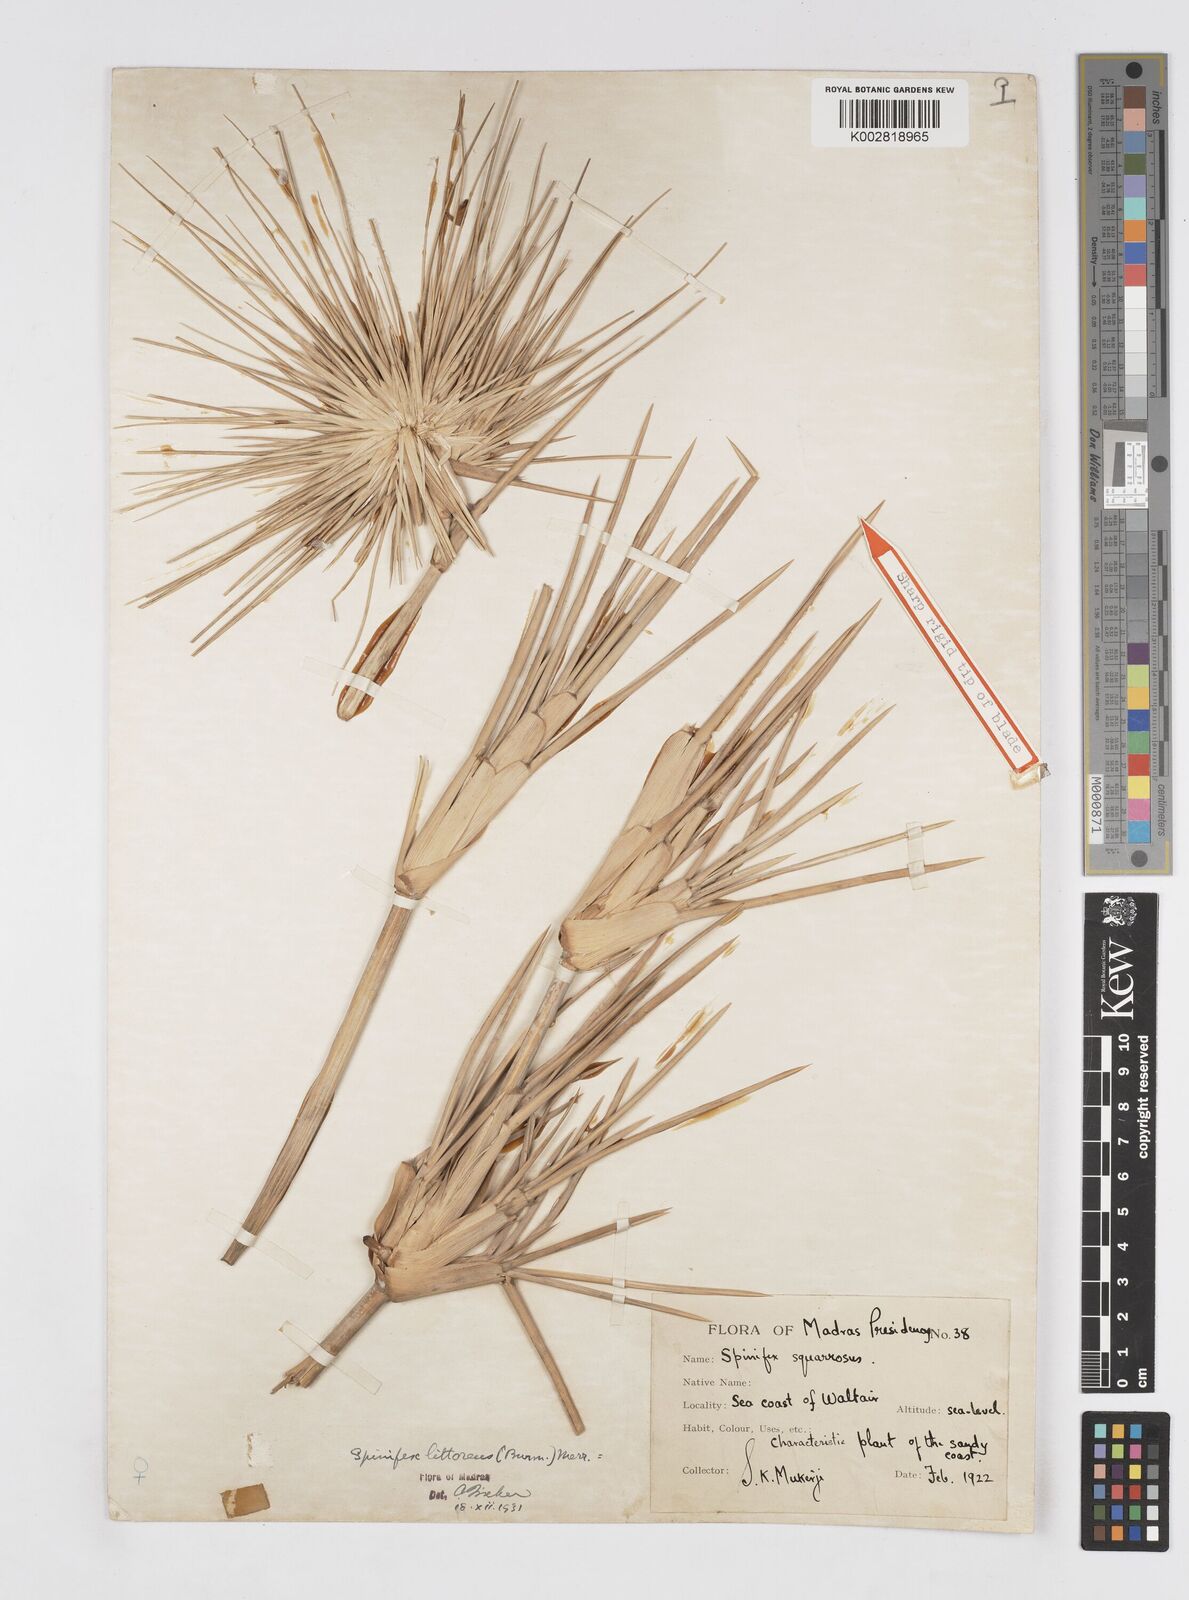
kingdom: Plantae
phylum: Tracheophyta
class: Liliopsida
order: Poales
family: Poaceae
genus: Spinifex
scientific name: Spinifex littoreus
